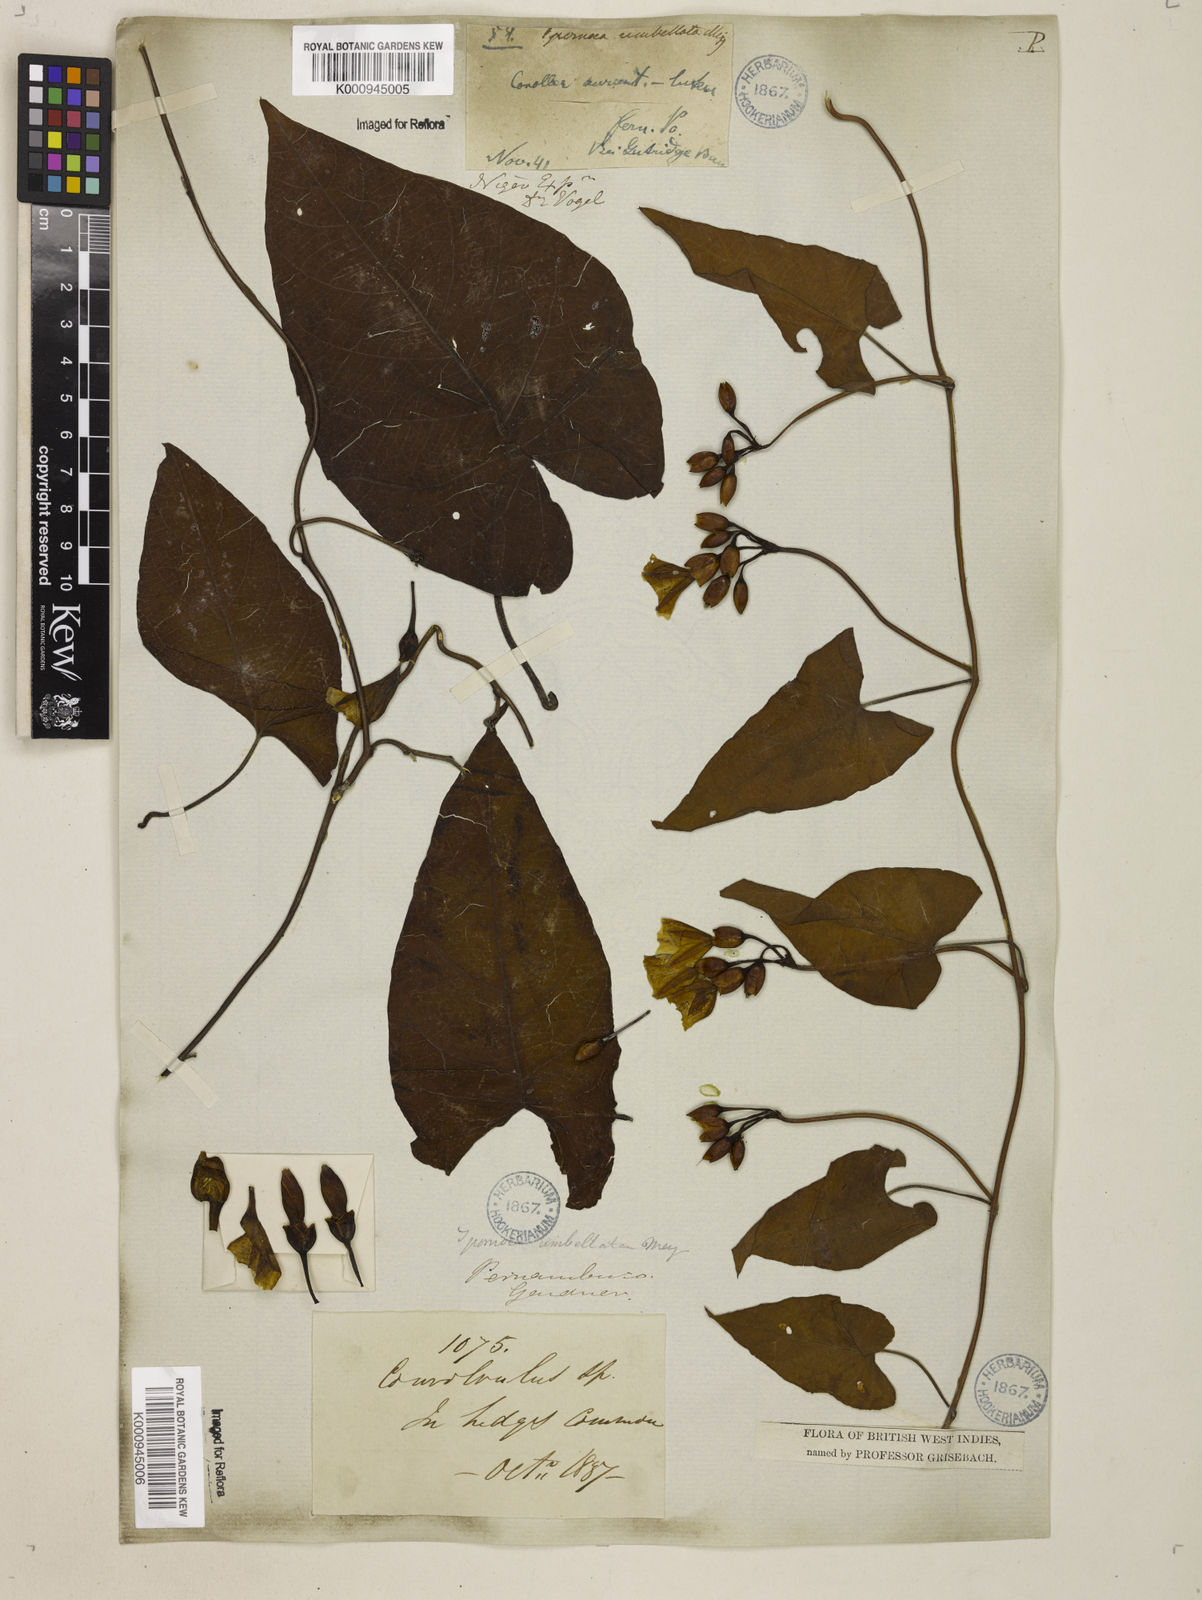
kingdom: Plantae
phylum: Tracheophyta
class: Magnoliopsida
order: Solanales
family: Convolvulaceae
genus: Camonea
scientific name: Camonea umbellata
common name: Hogvine
